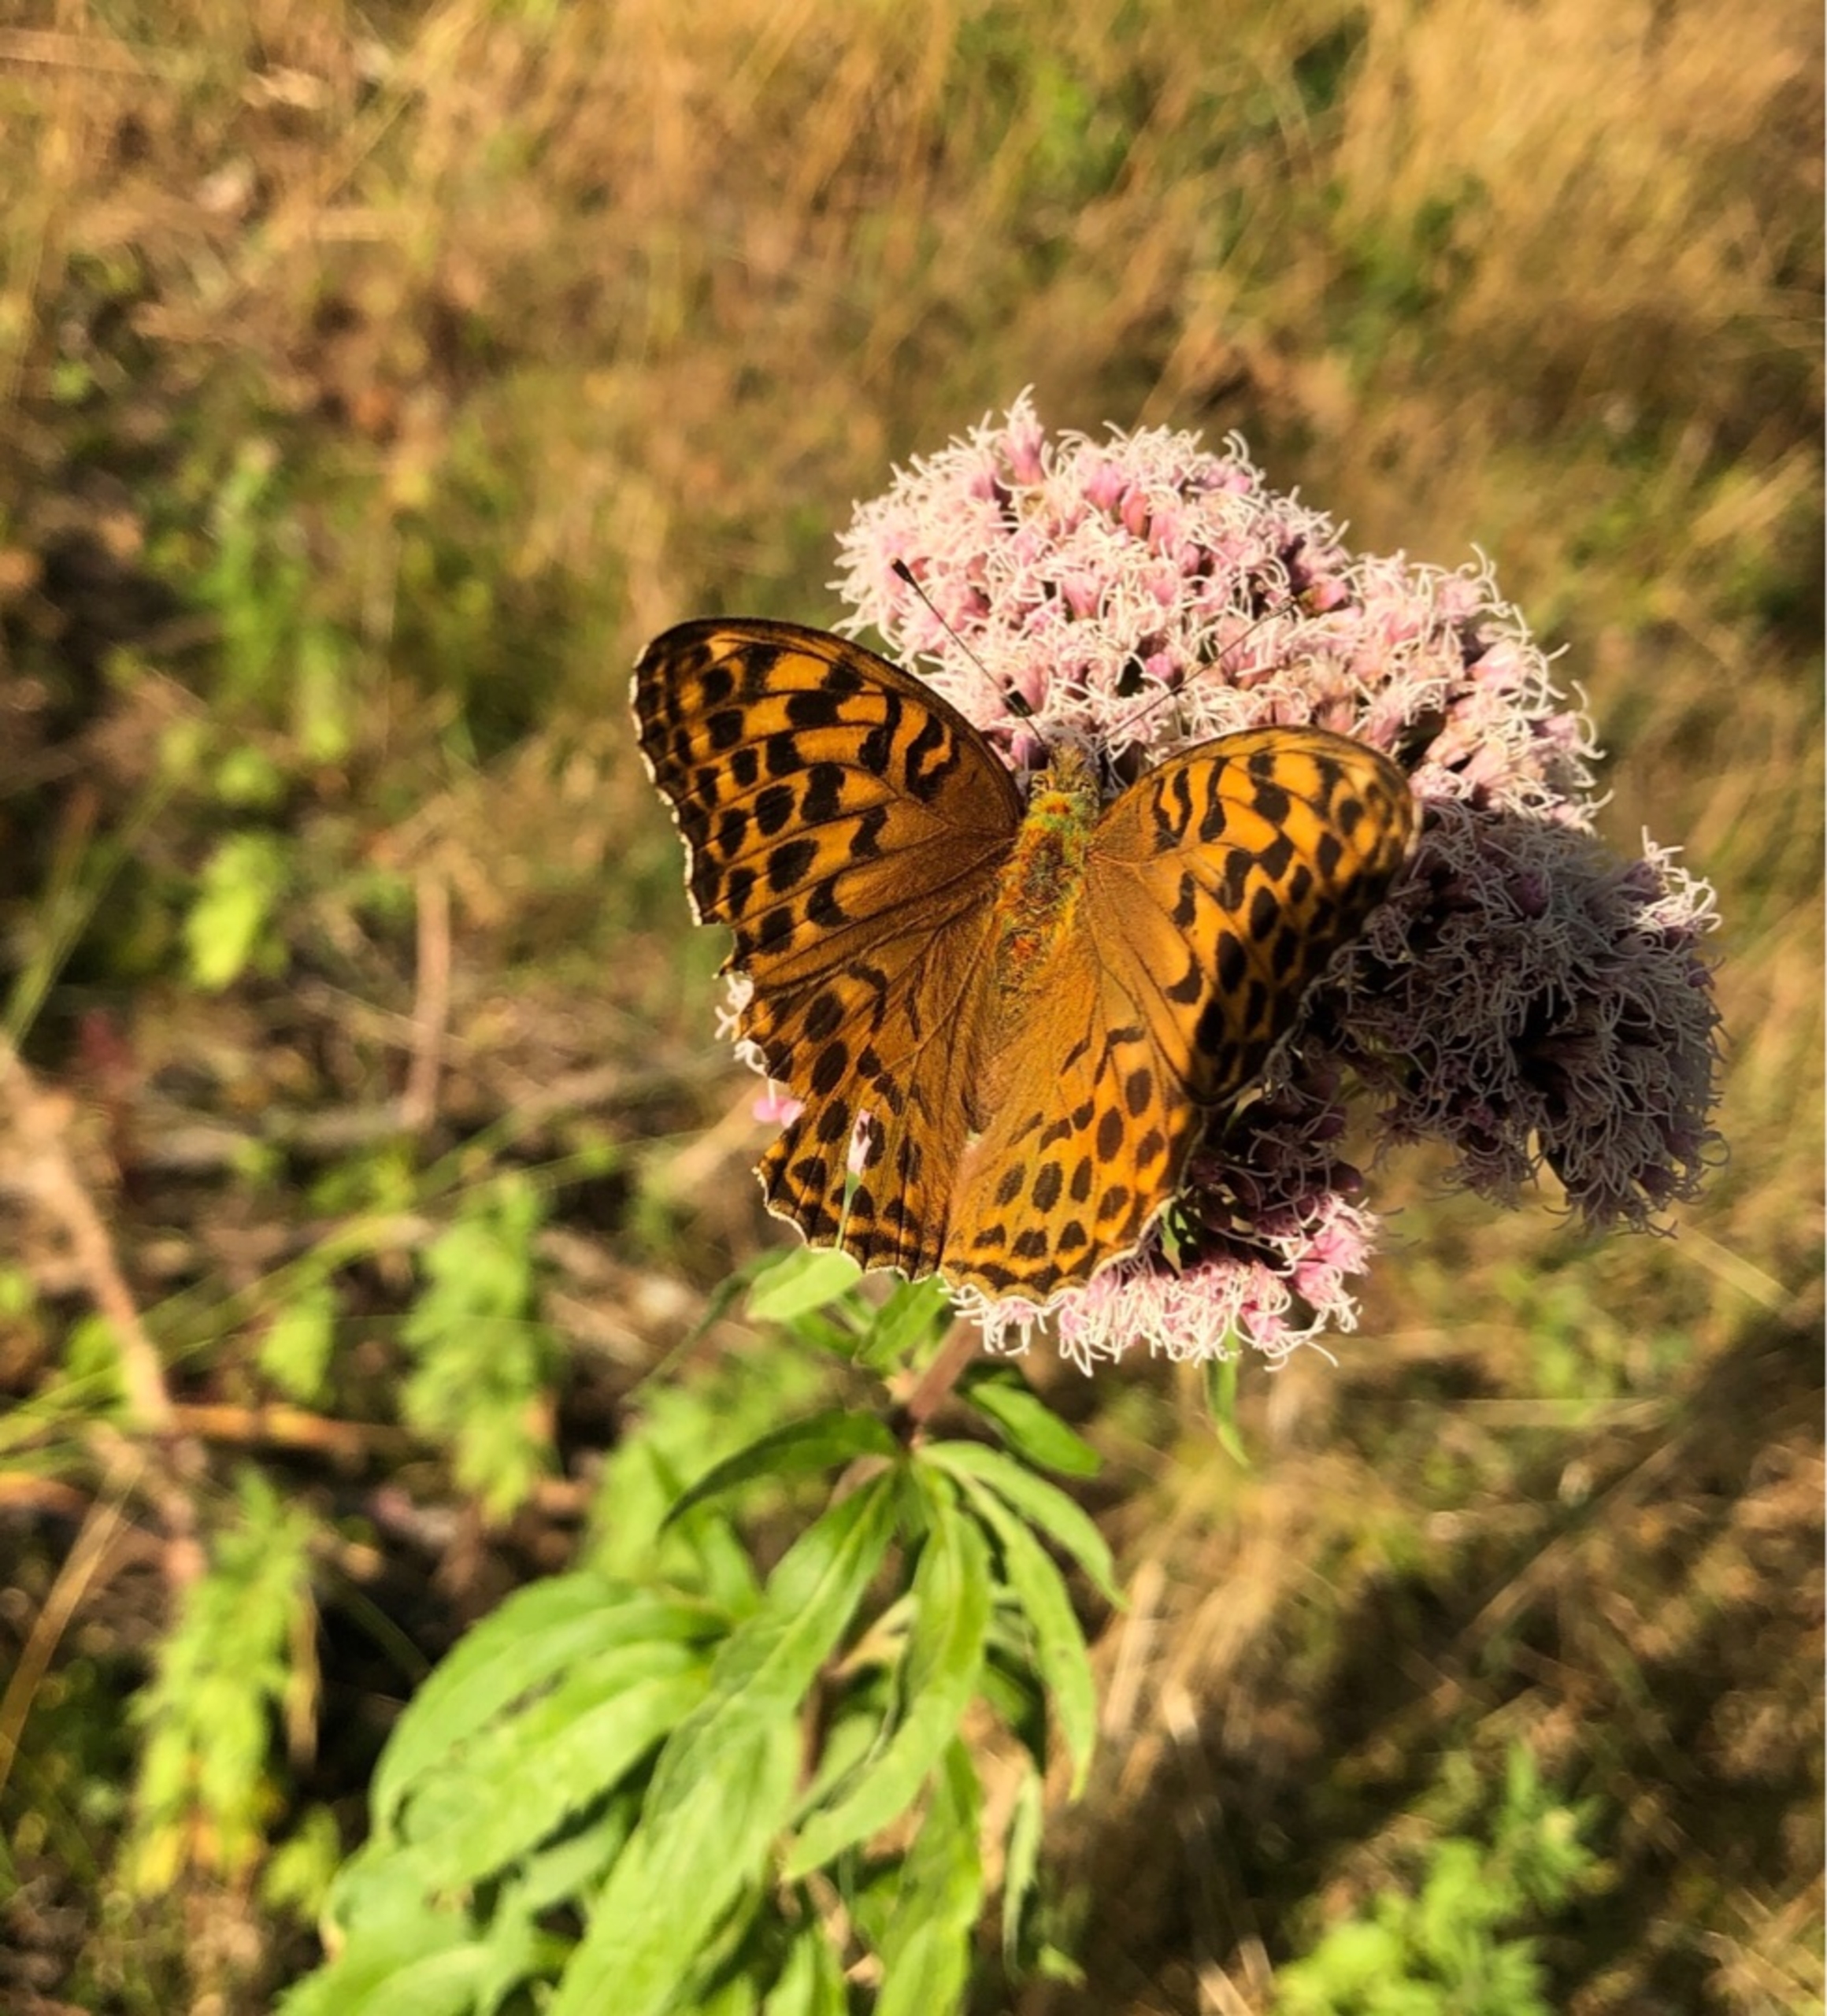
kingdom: Animalia
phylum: Arthropoda
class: Insecta
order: Lepidoptera
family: Nymphalidae
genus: Argynnis
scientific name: Argynnis paphia
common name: Kejserkåbe
